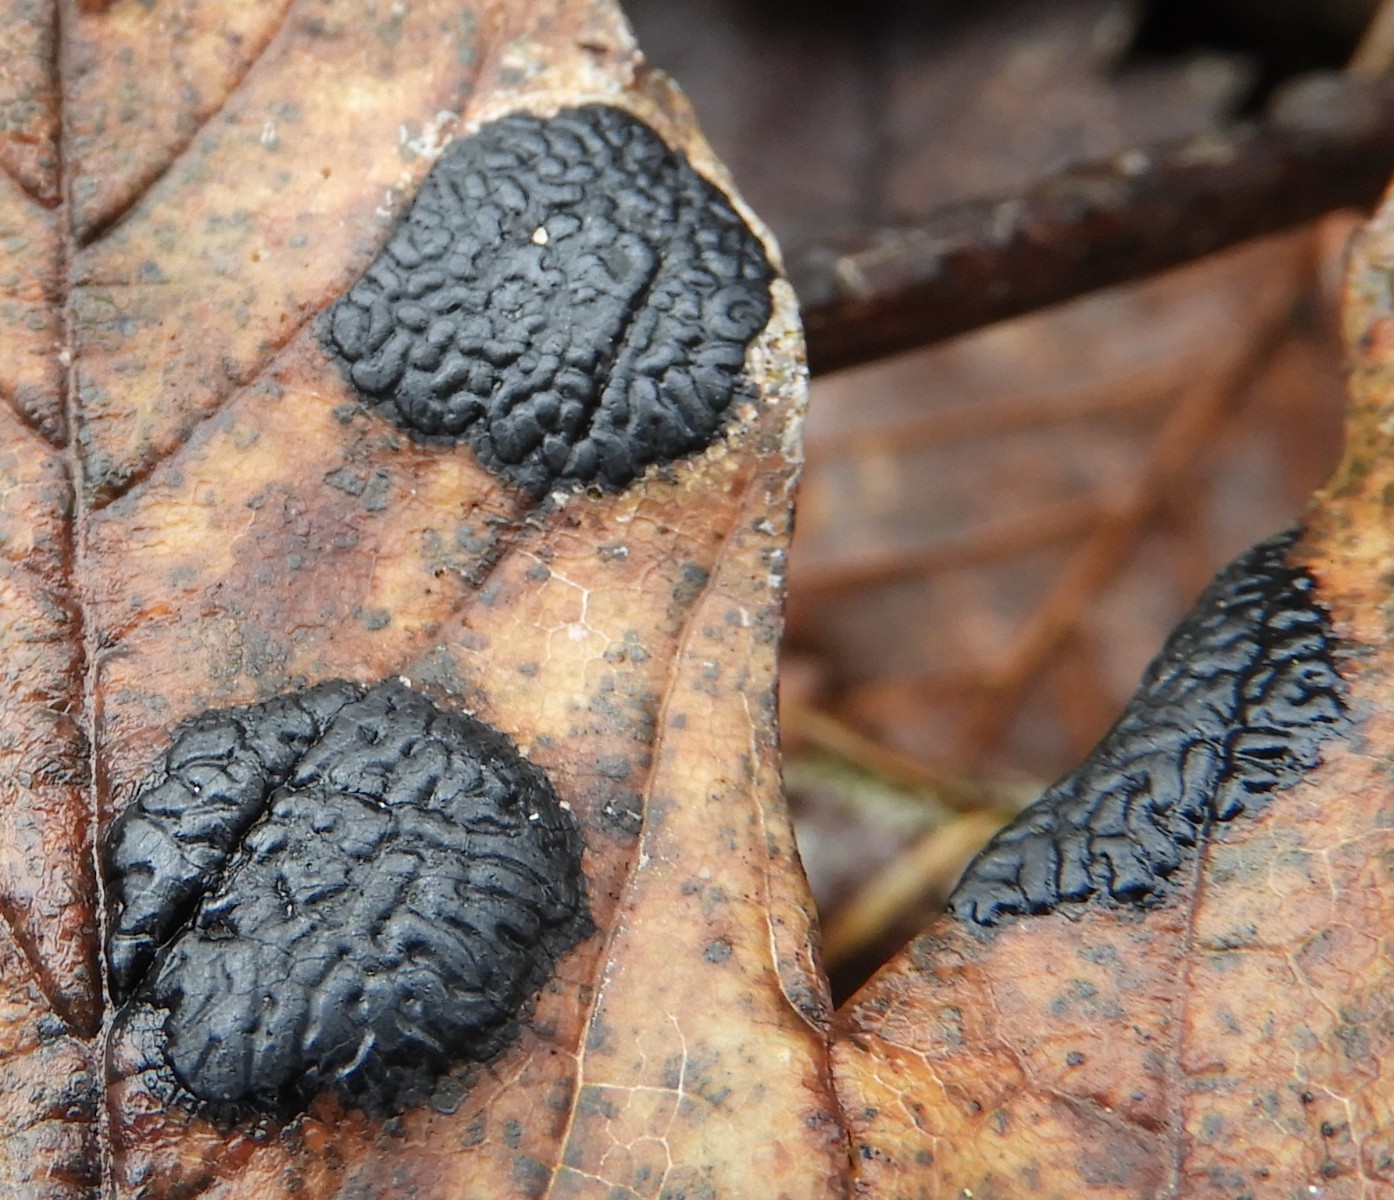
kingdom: Fungi
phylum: Ascomycota
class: Leotiomycetes
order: Rhytismatales
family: Rhytismataceae
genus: Rhytisma
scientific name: Rhytisma acerinum
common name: ahorn-rynkeplet
